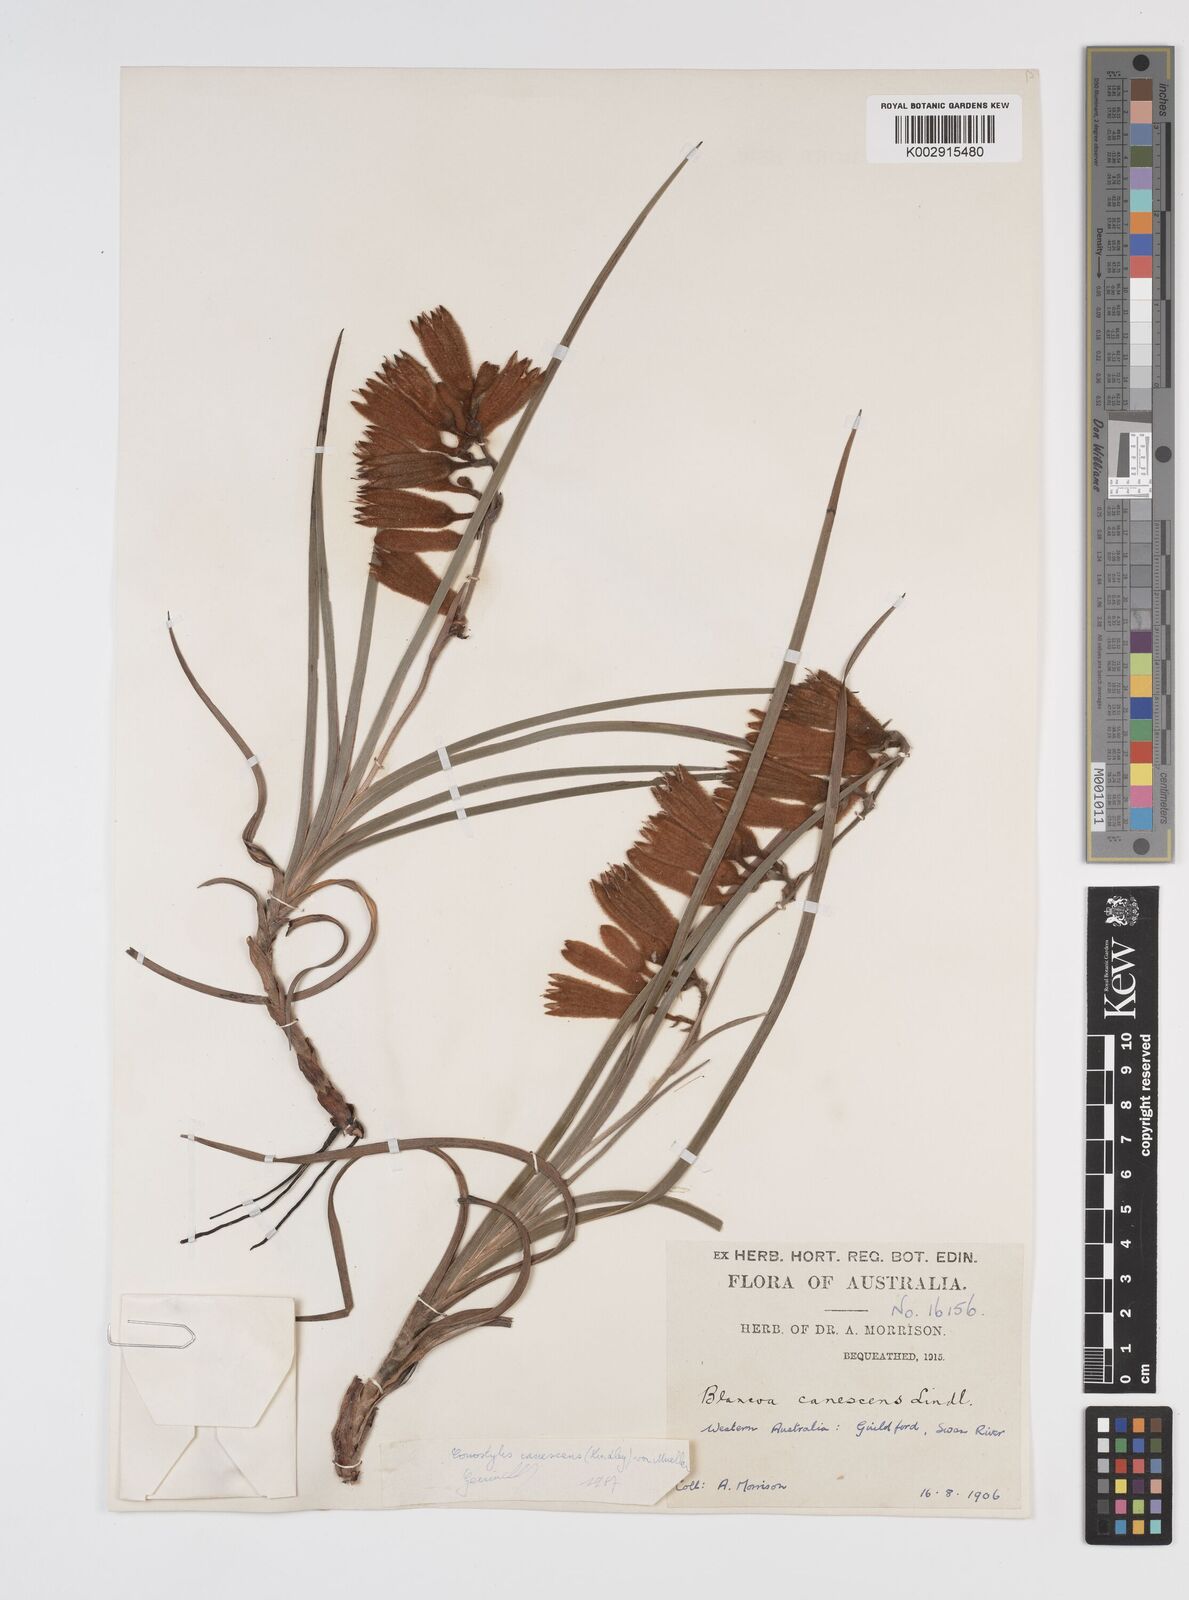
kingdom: Plantae
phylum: Tracheophyta
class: Liliopsida
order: Commelinales
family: Haemodoraceae
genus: Blancoa
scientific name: Blancoa canescens
